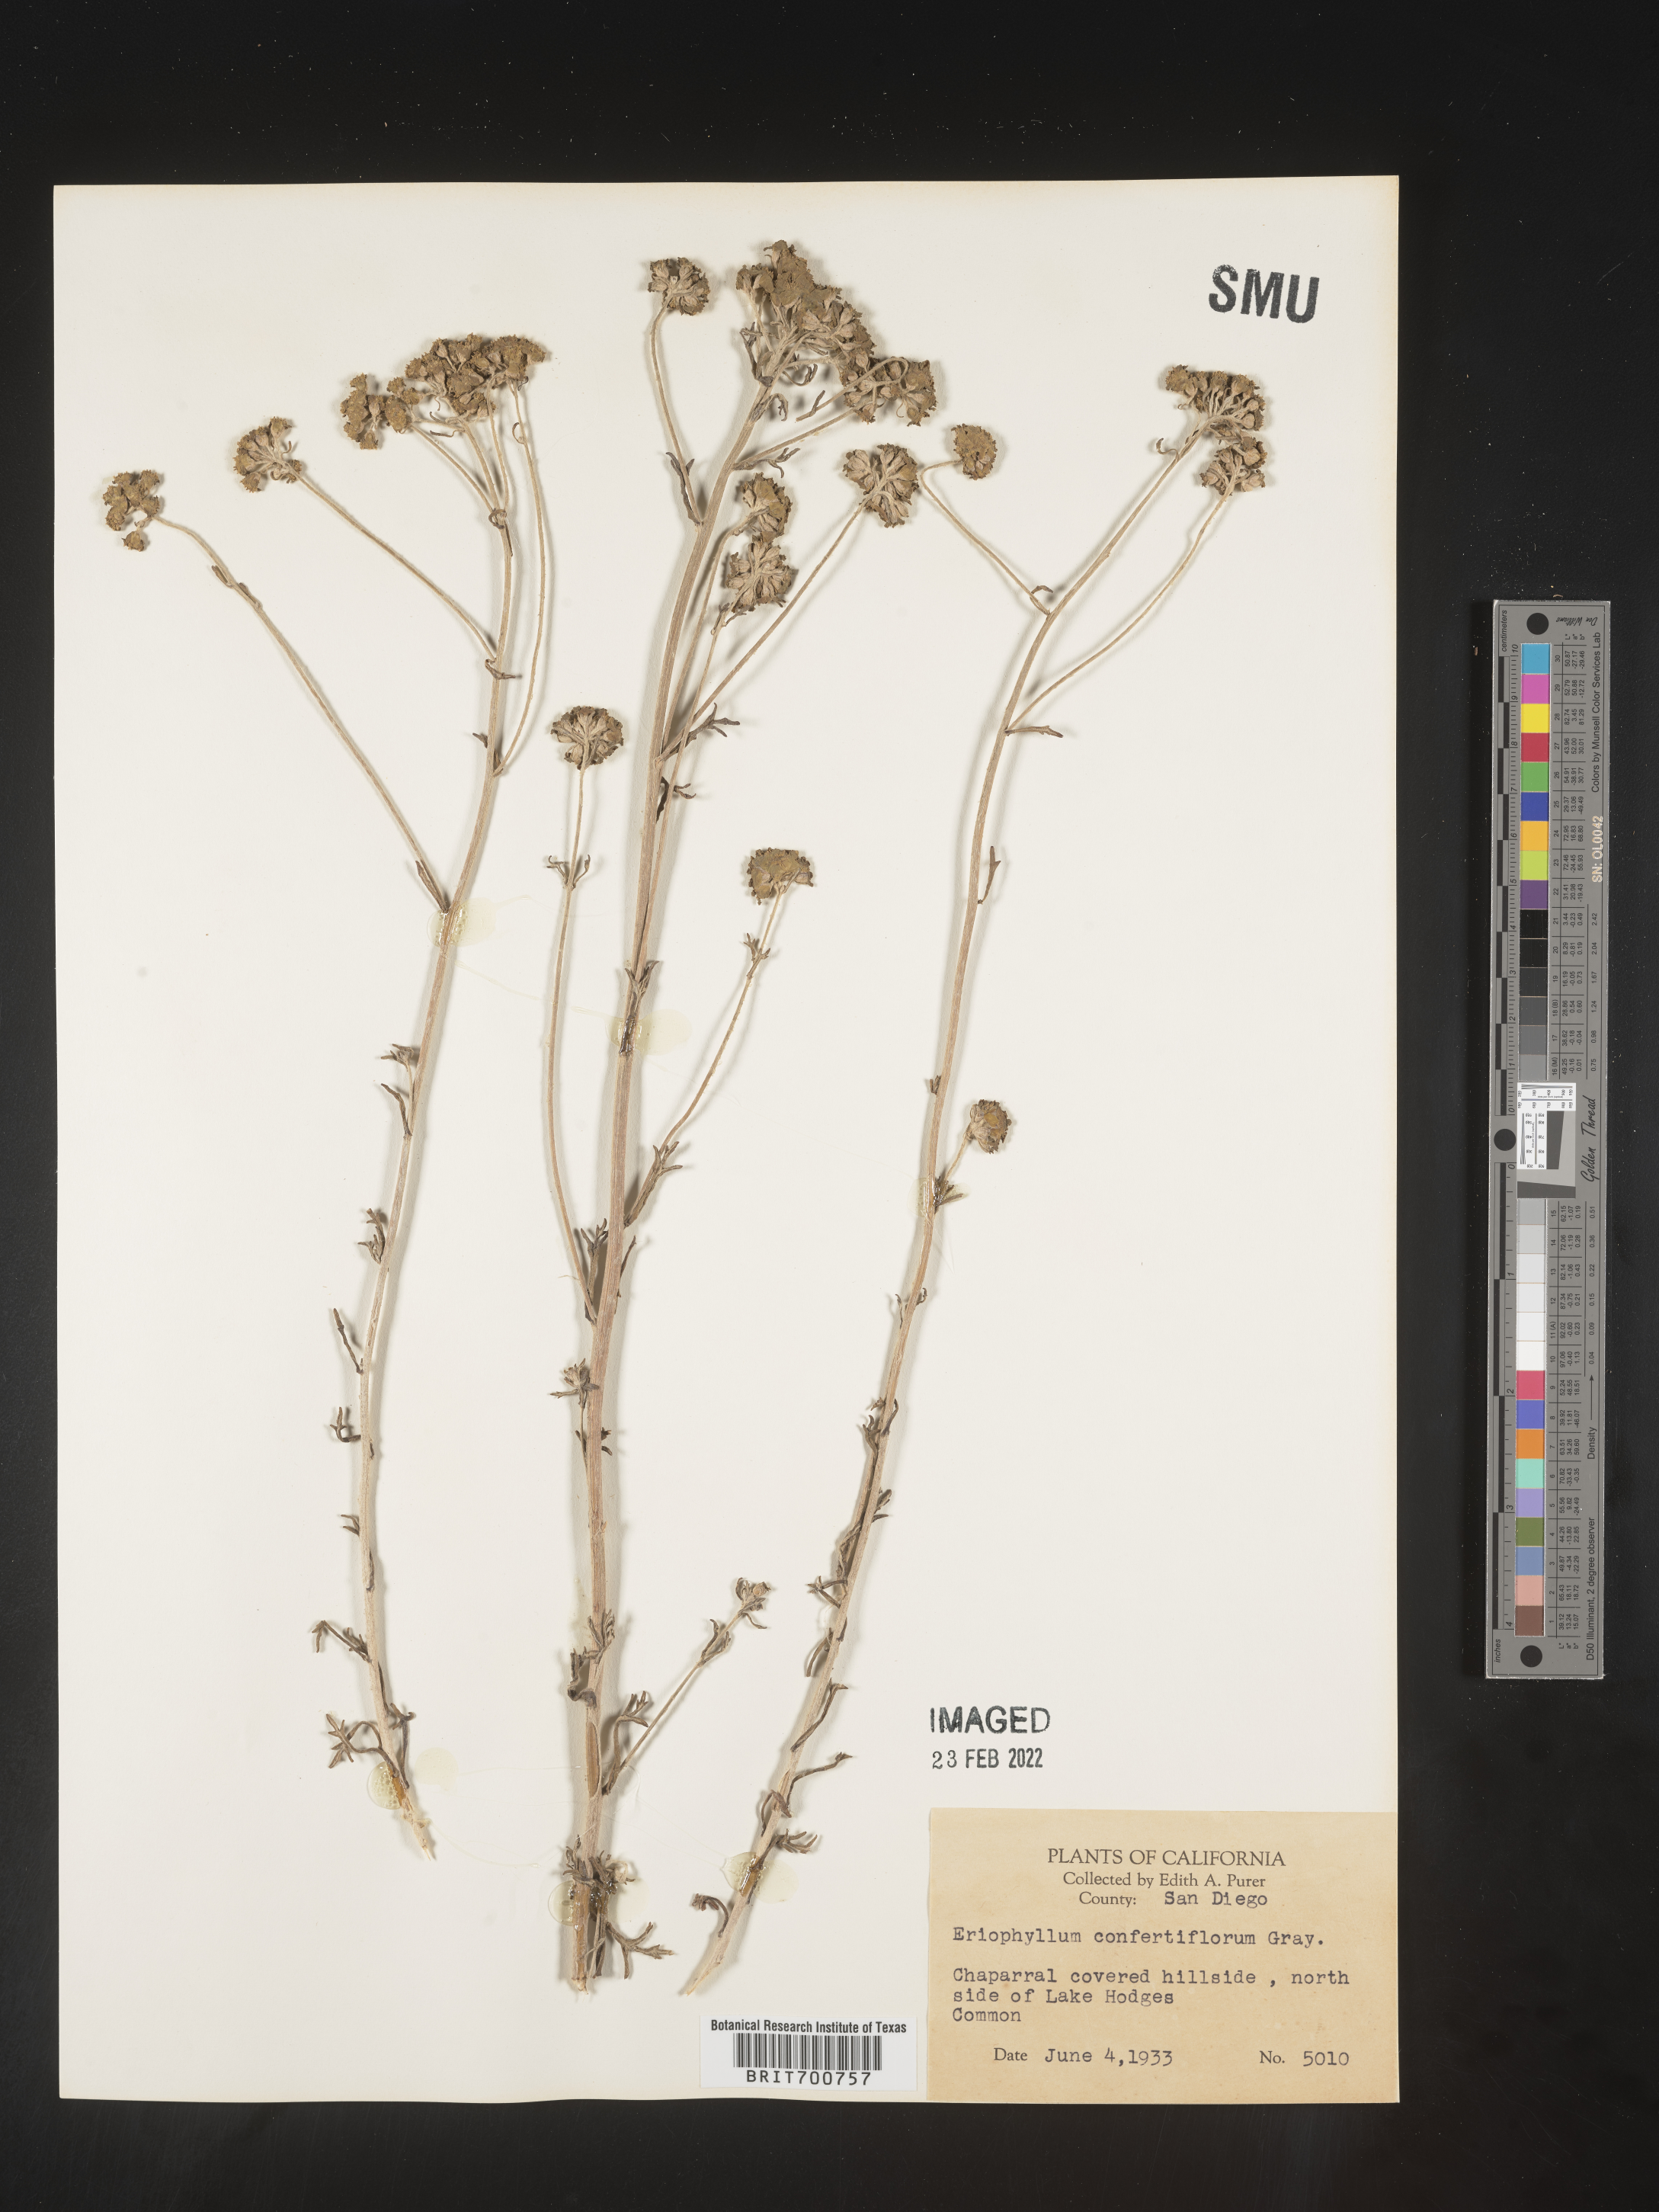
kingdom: Plantae
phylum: Tracheophyta
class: Magnoliopsida
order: Asterales
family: Asteraceae
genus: Eriophyllum
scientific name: Eriophyllum confertiflorum
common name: Golden-yarrow
